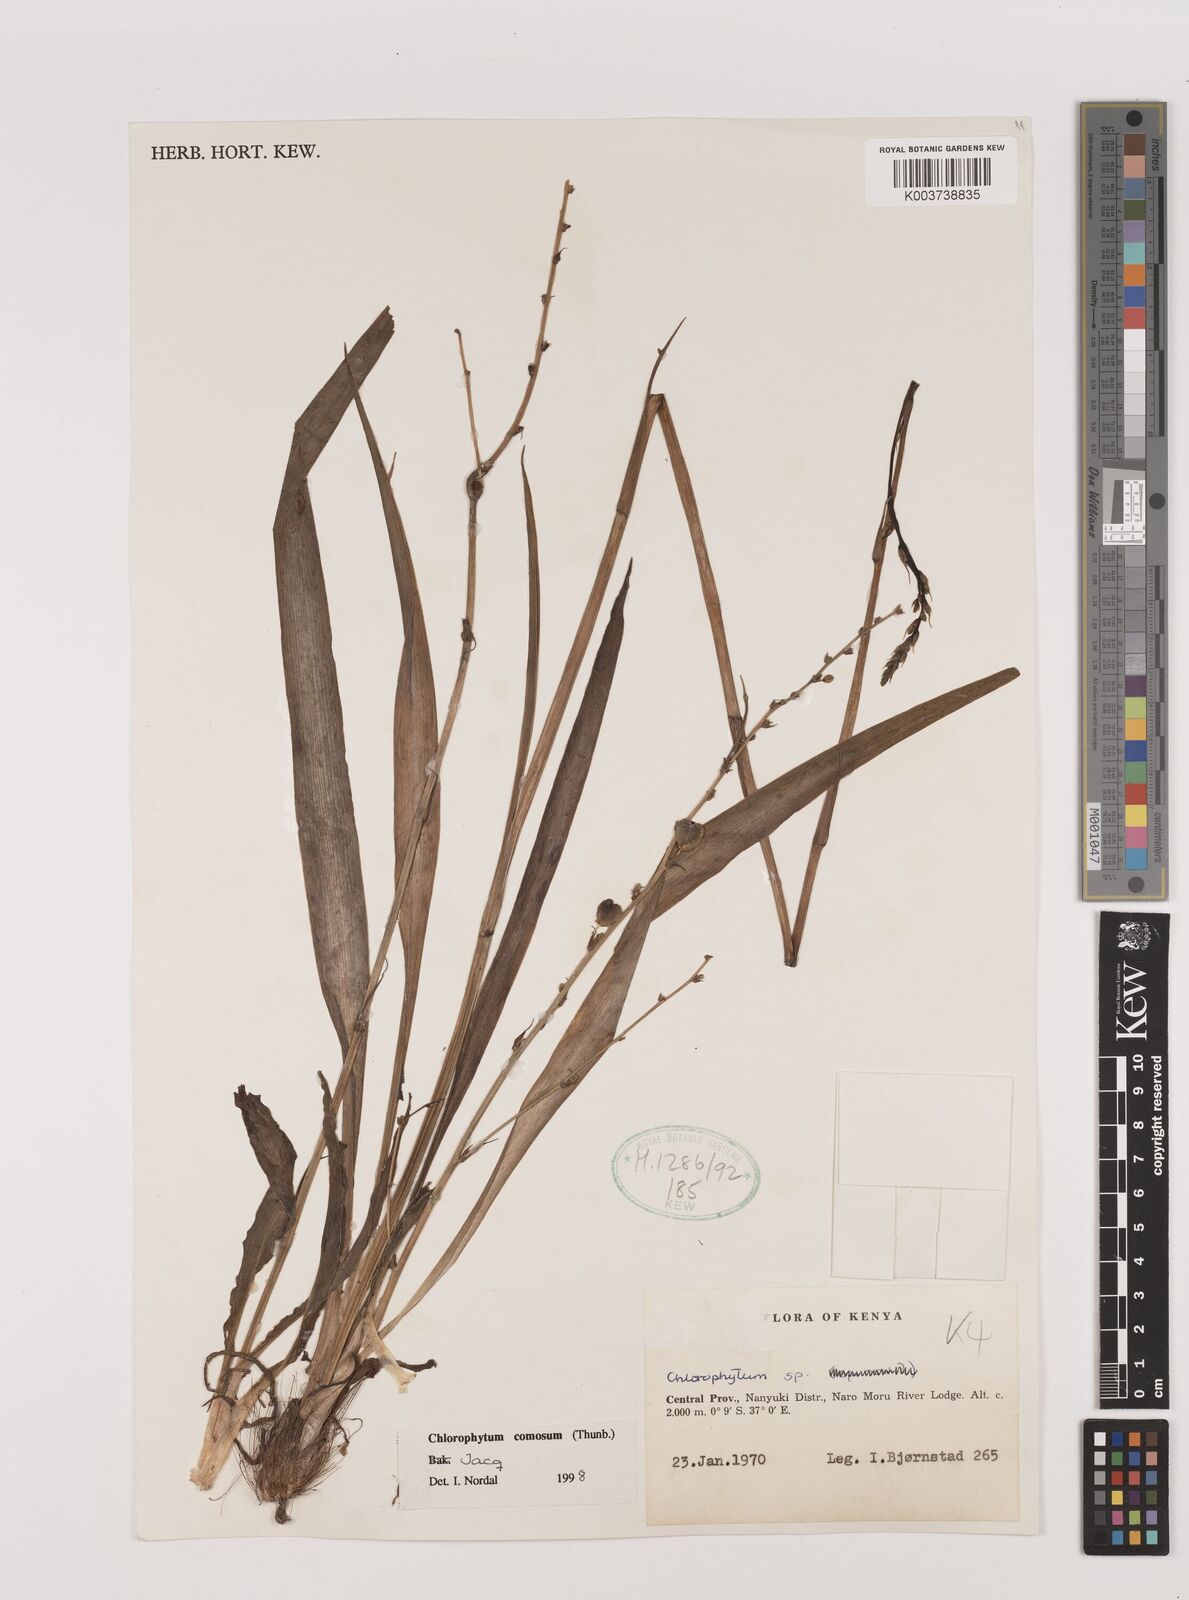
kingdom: Plantae
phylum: Tracheophyta
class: Liliopsida
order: Asparagales
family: Asparagaceae
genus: Chlorophytum
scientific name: Chlorophytum comosum
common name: Spider plant
